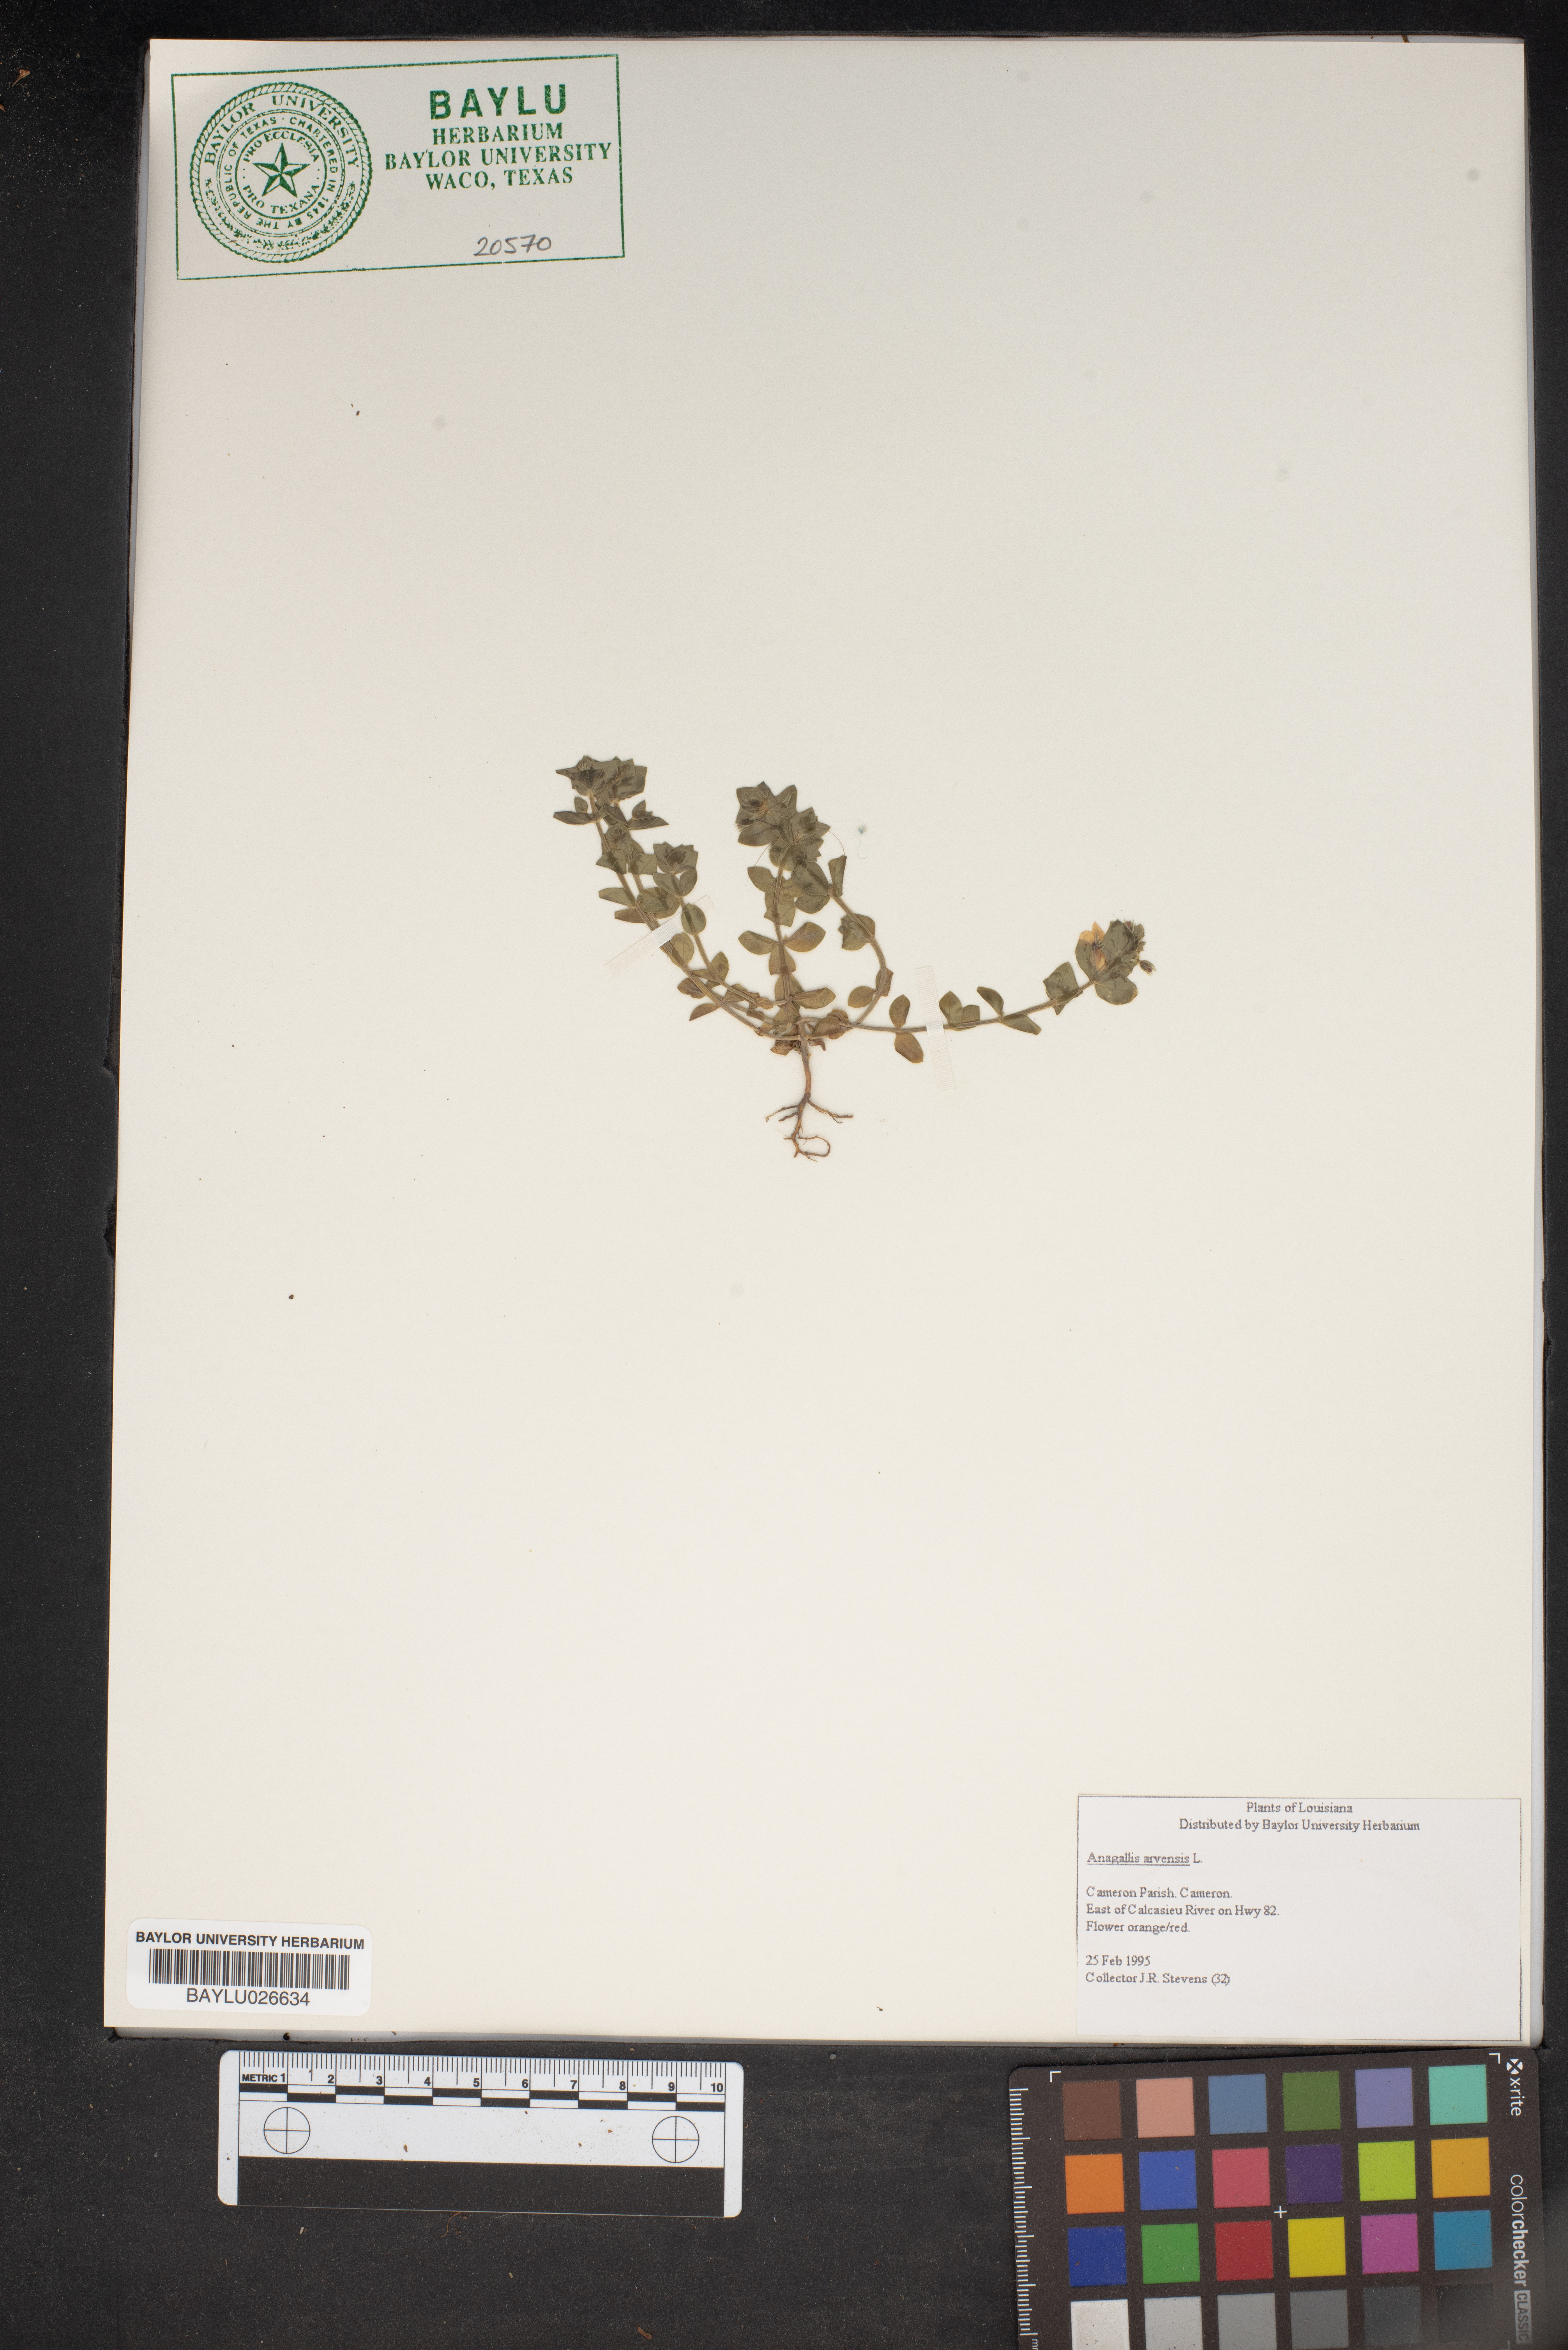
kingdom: Plantae
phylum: Tracheophyta
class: Magnoliopsida
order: Ericales
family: Primulaceae
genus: Lysimachia
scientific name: Lysimachia arvensis
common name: Scarlet pimpernel
